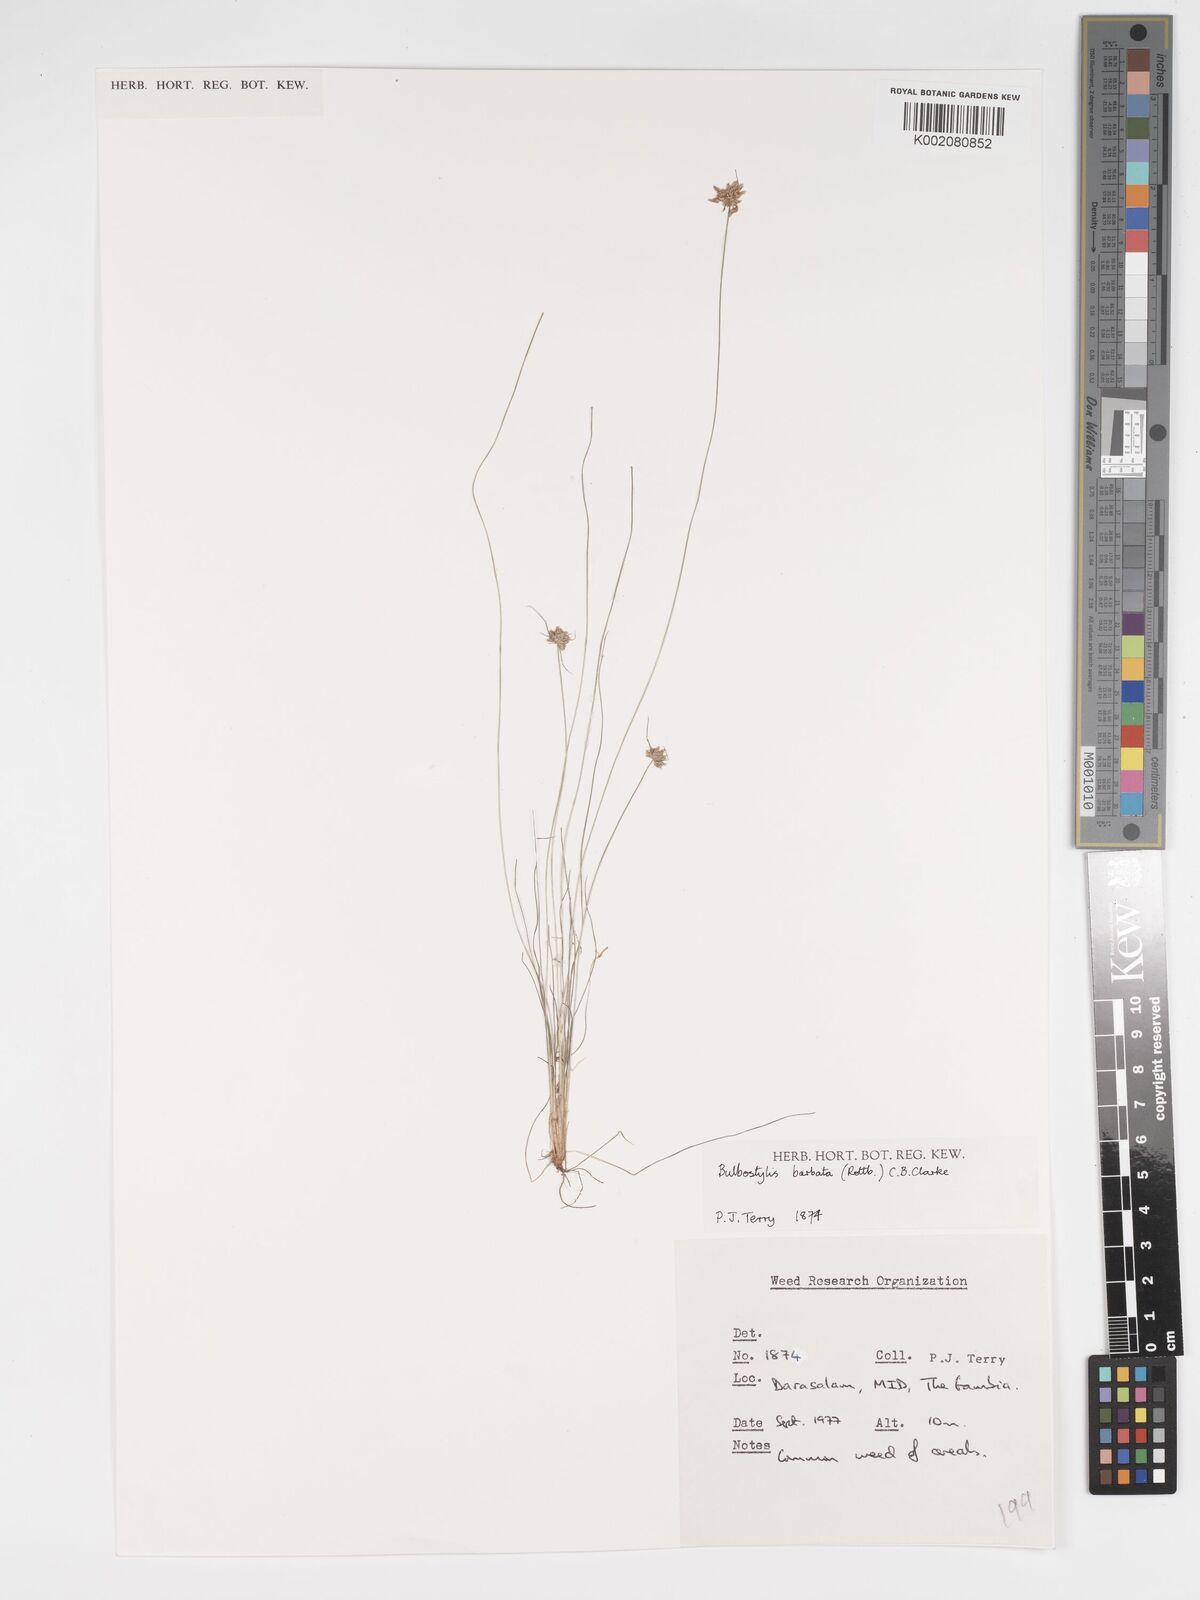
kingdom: Plantae
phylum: Tracheophyta
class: Liliopsida
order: Poales
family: Cyperaceae
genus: Bulbostylis
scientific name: Bulbostylis barbata
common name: Watergrass
